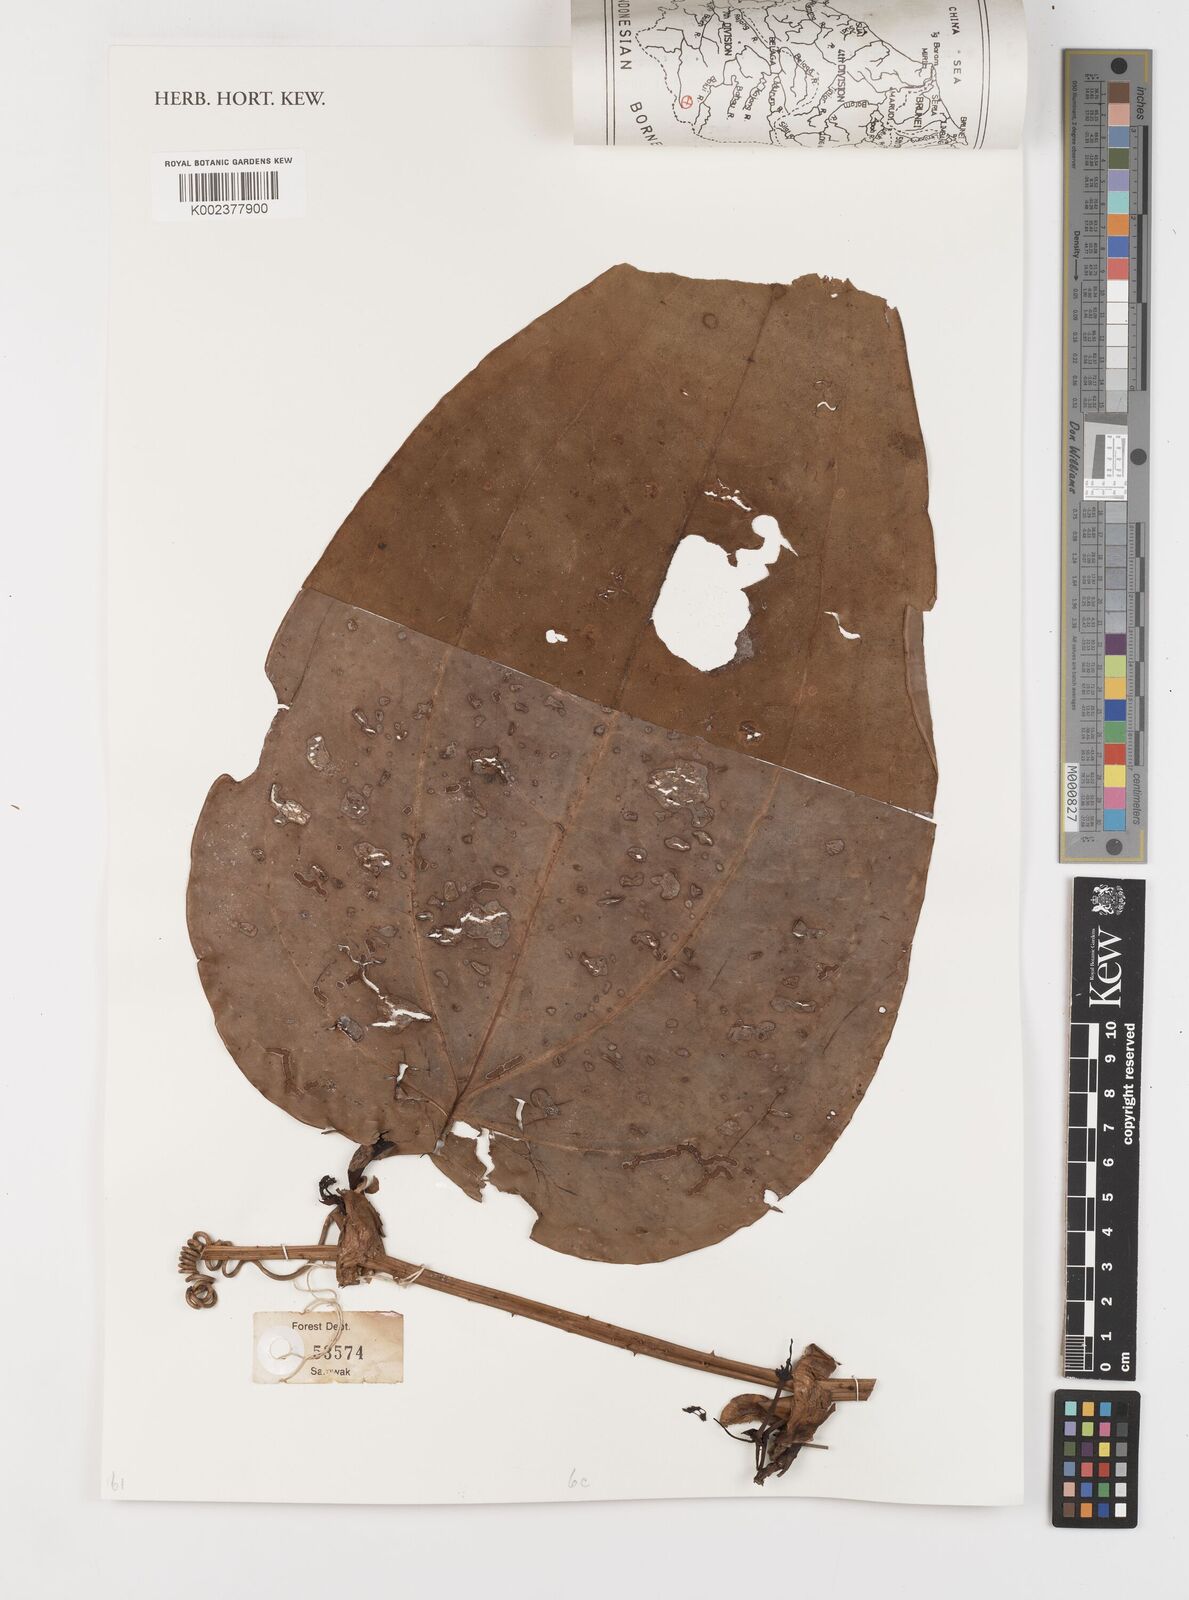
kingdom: Plantae
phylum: Tracheophyta
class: Liliopsida
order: Liliales
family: Smilacaceae
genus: Smilax
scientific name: Smilax
